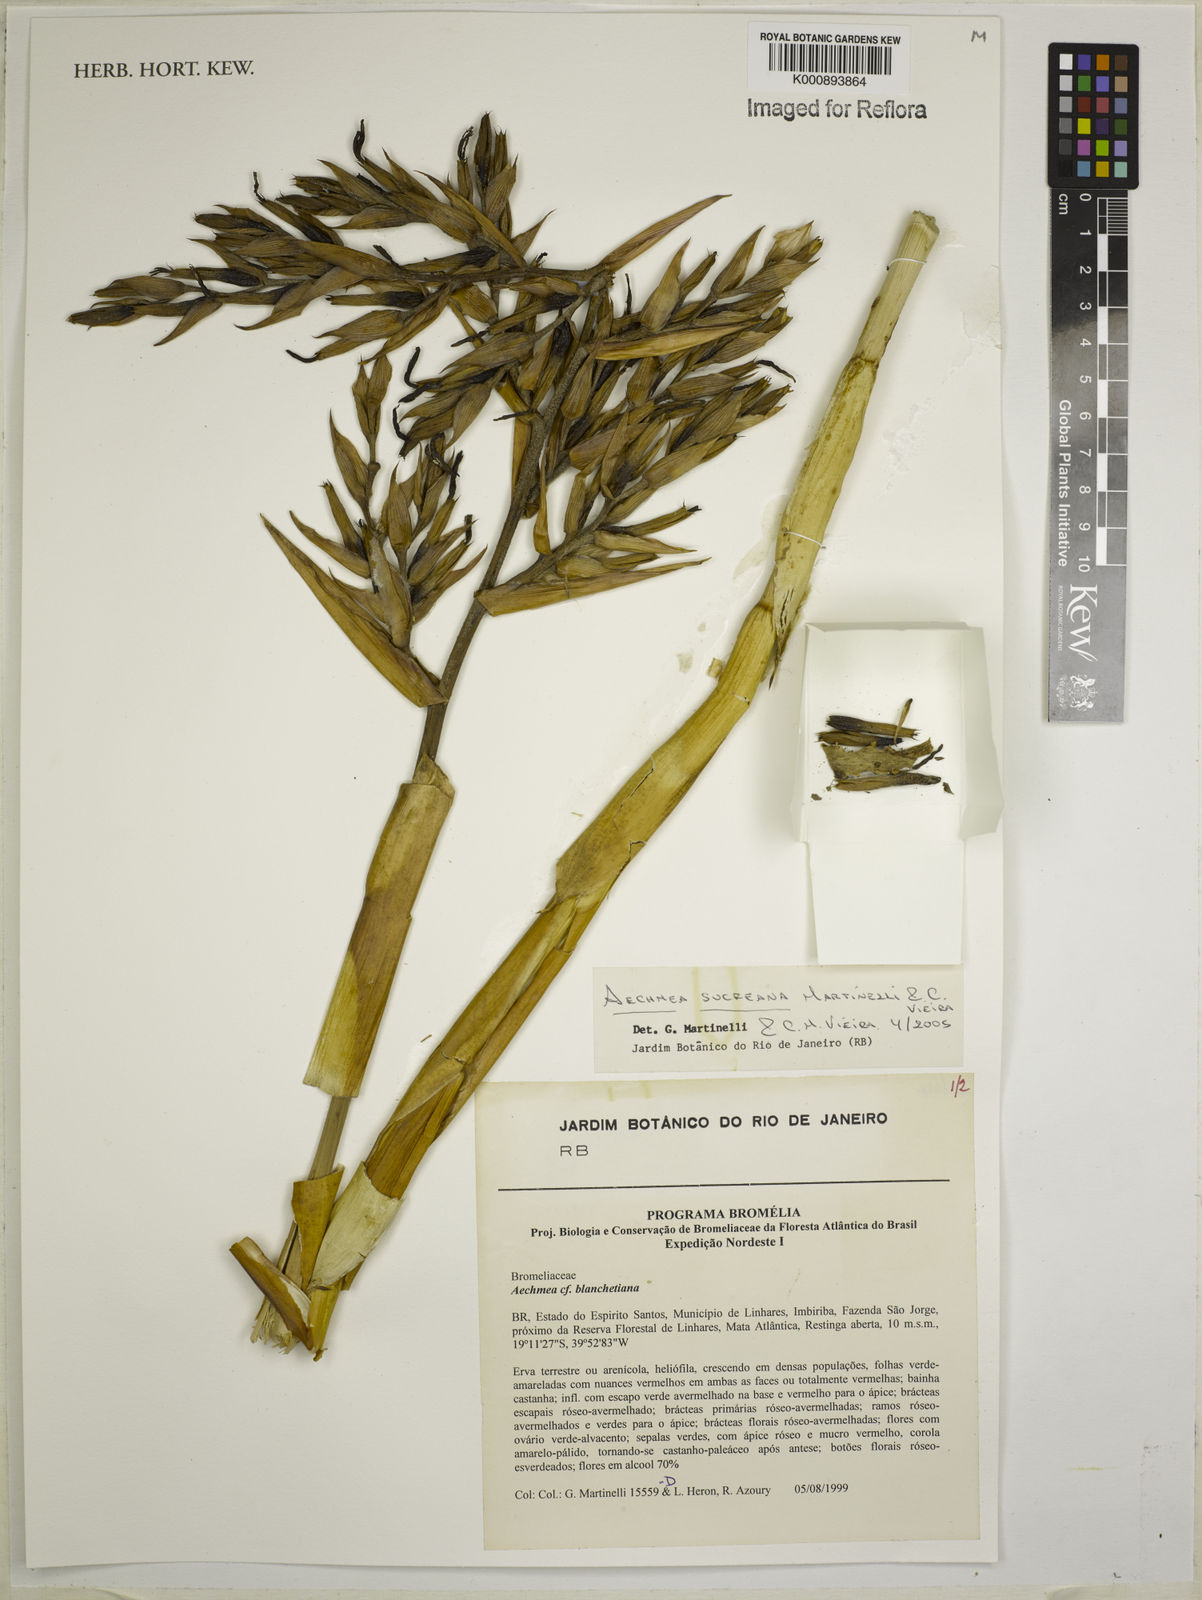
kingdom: Plantae
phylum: Tracheophyta
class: Liliopsida
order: Poales
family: Bromeliaceae
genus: Aechmea
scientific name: Aechmea sucreana
